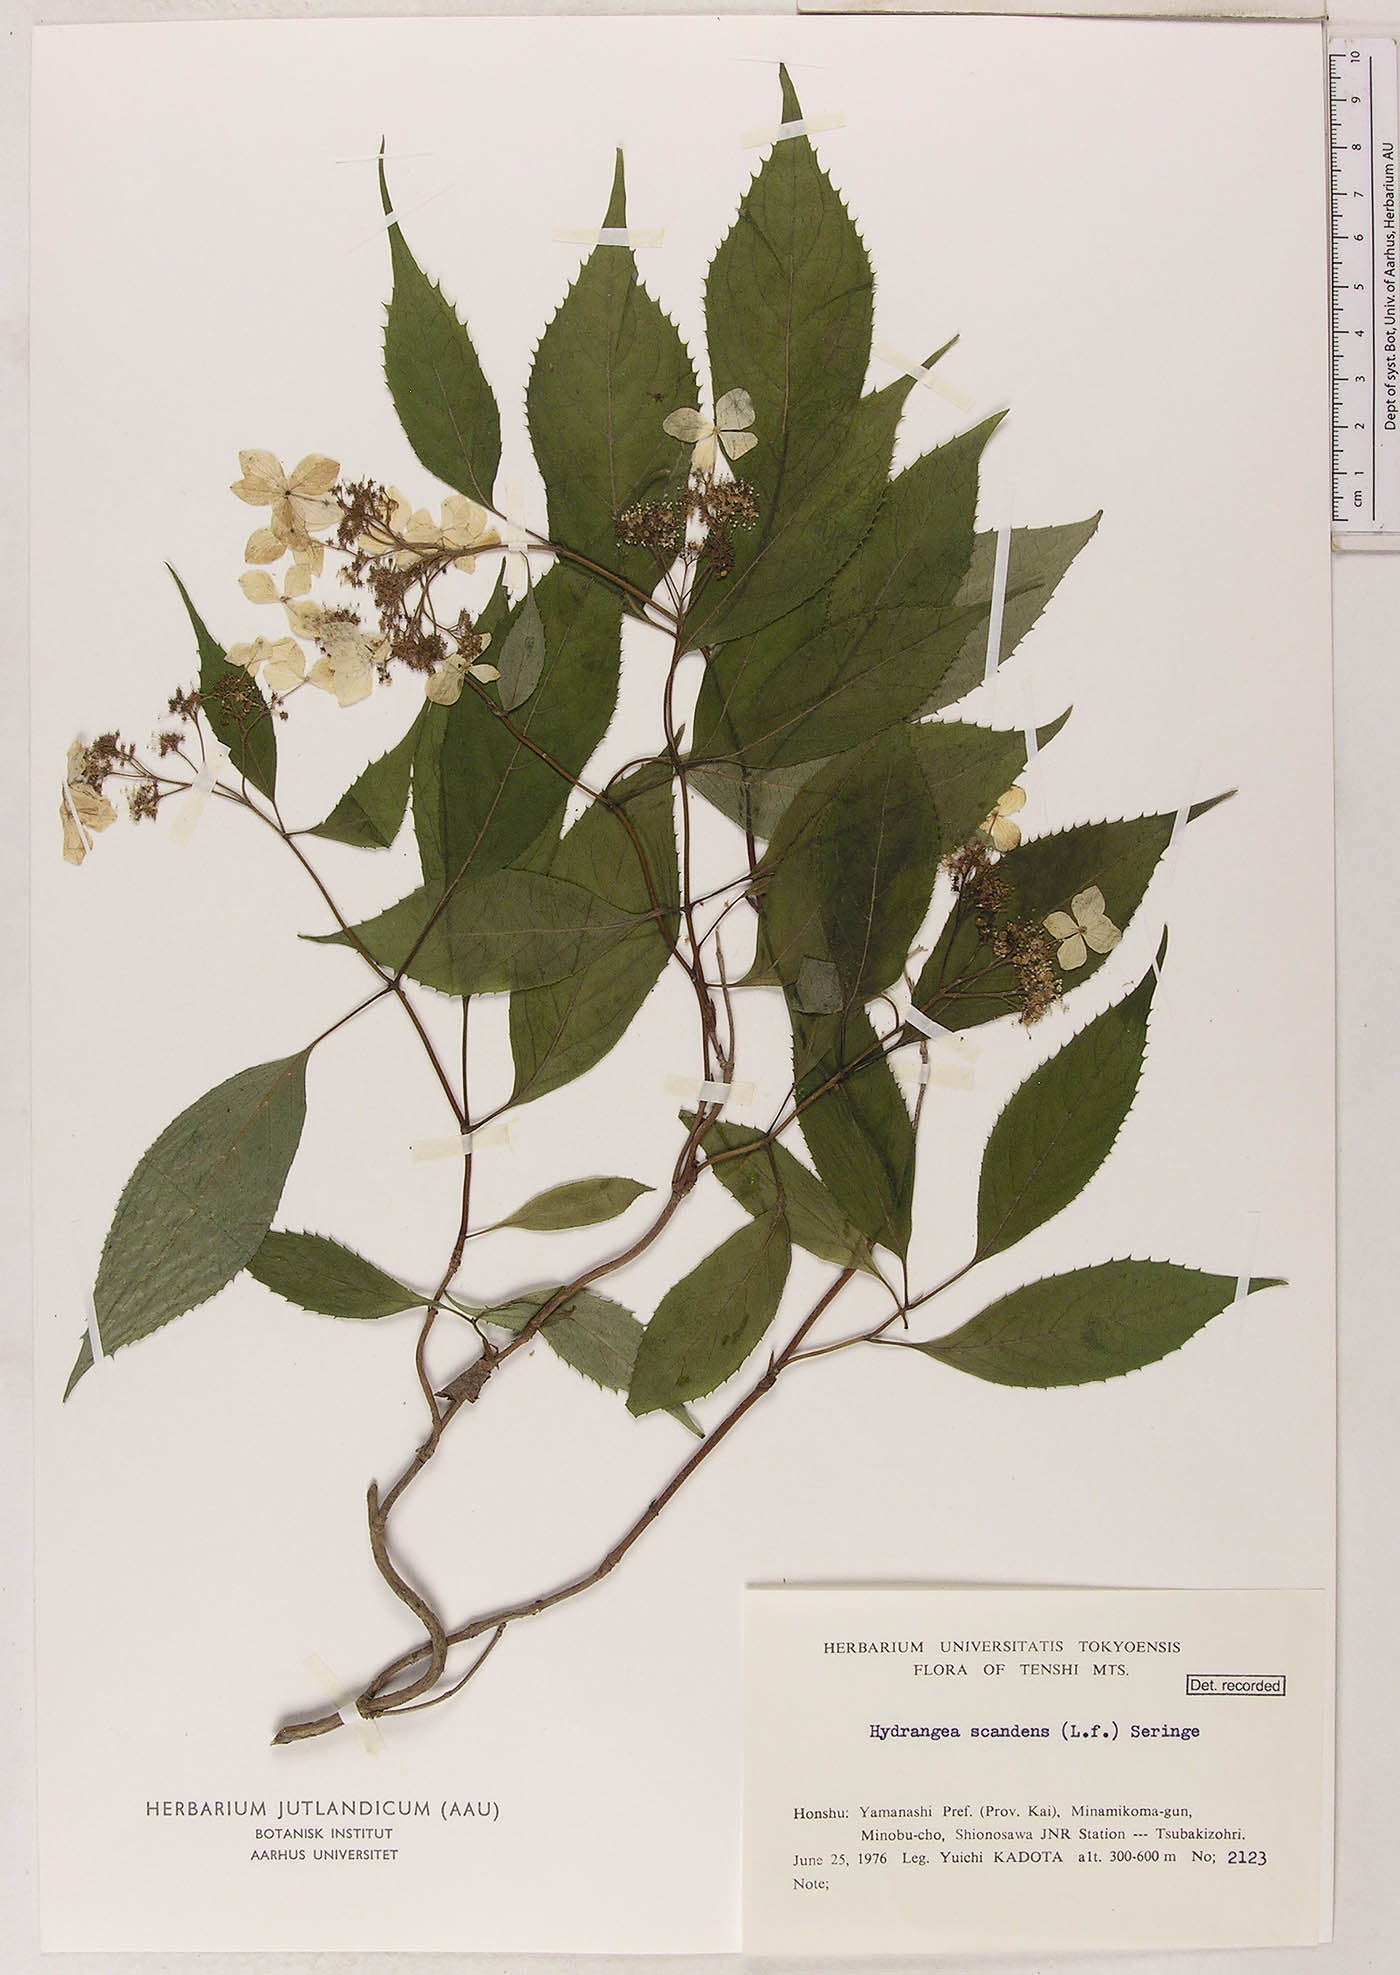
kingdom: Plantae
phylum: Tracheophyta
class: Magnoliopsida
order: Cornales
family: Hydrangeaceae
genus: Hydrangea
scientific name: Hydrangea scandens
